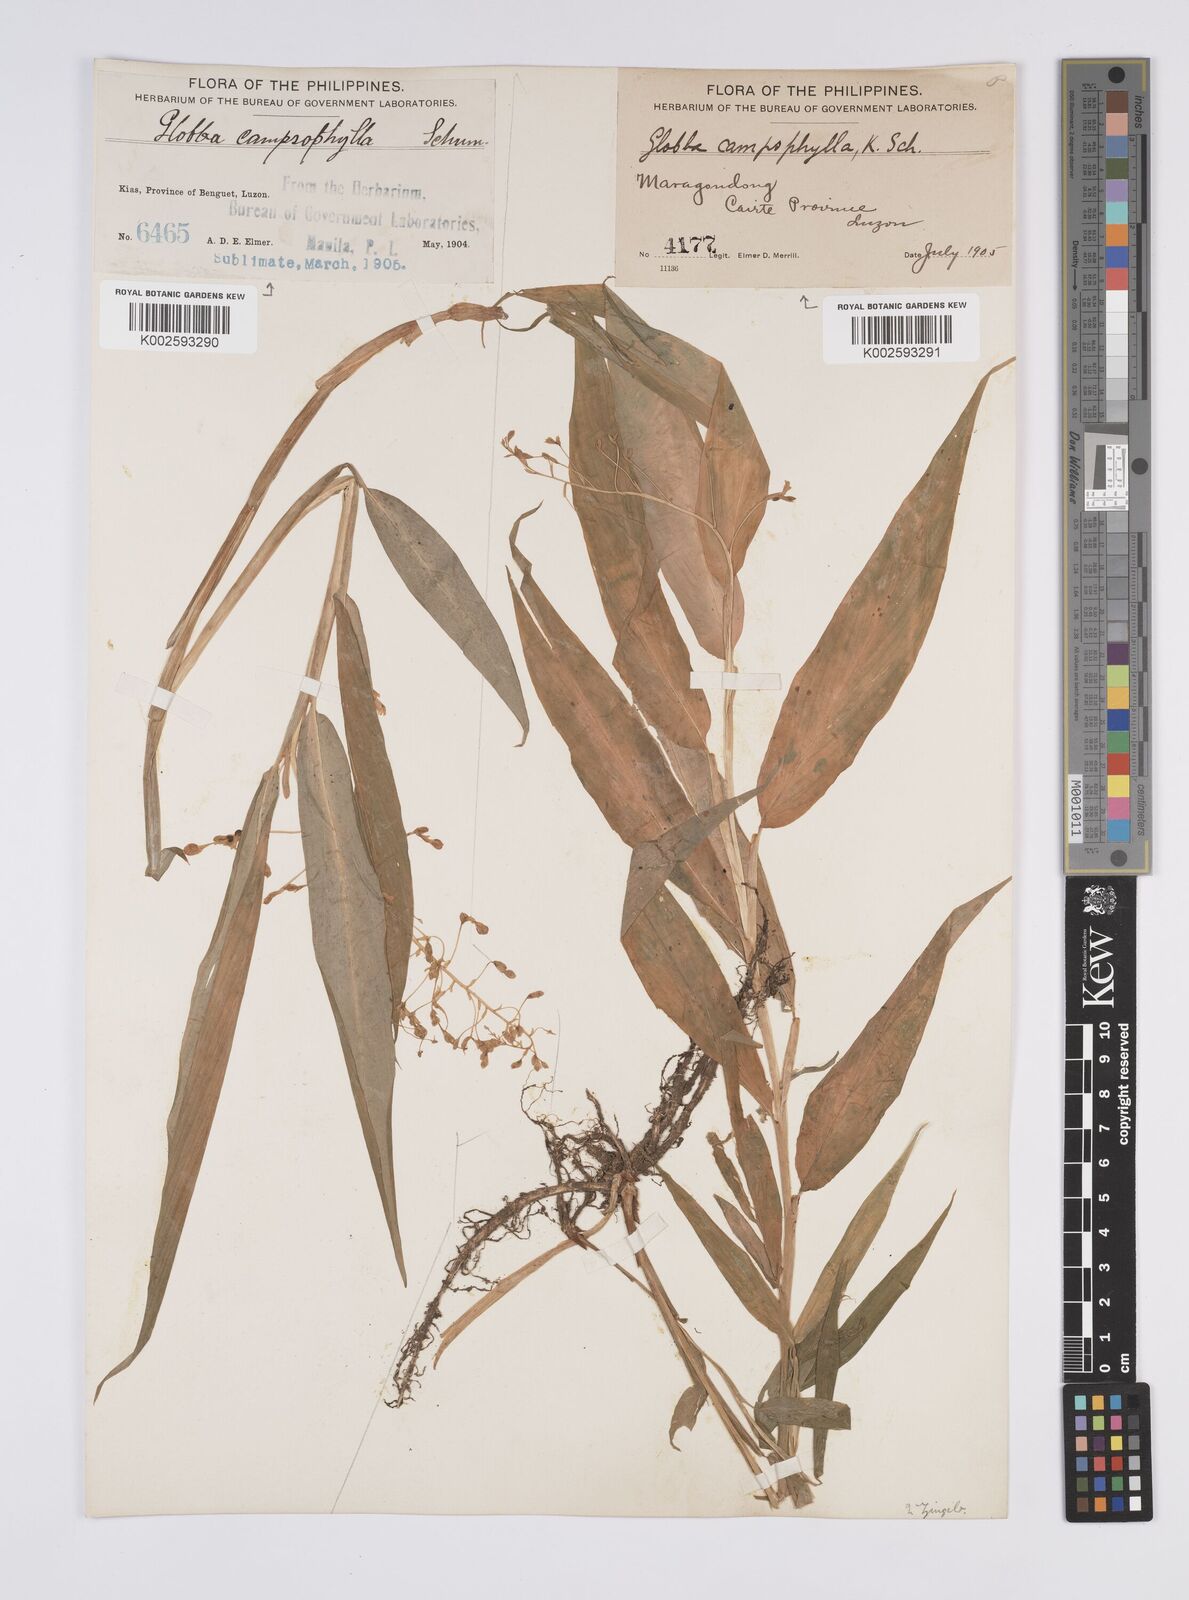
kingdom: Plantae
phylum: Tracheophyta
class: Liliopsida
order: Zingiberales
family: Zingiberaceae
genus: Globba
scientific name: Globba campsophylla
